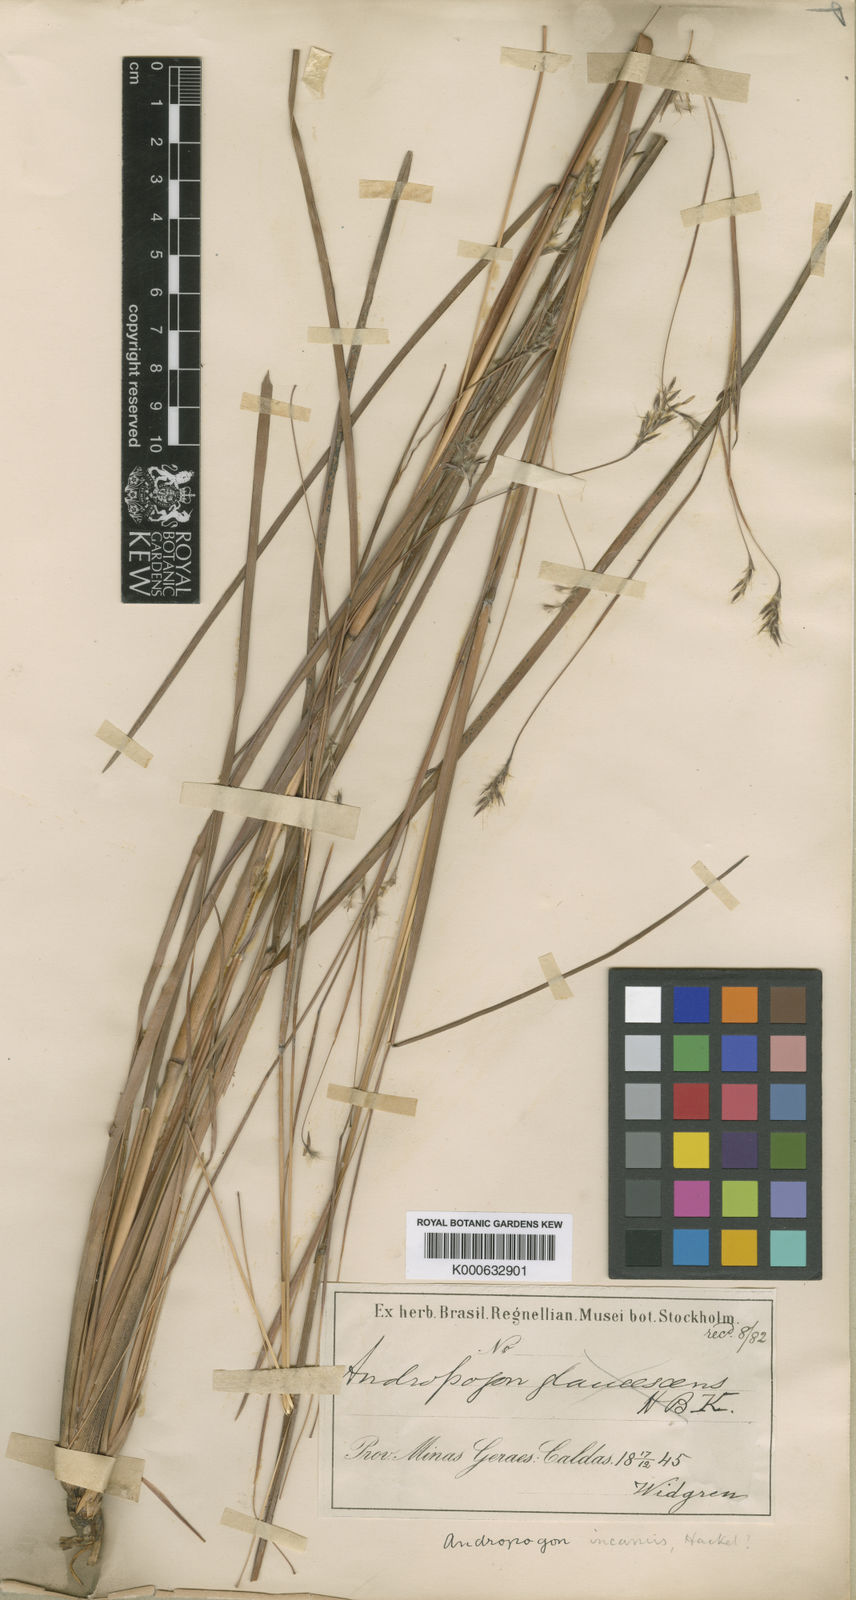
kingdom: Plantae
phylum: Tracheophyta
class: Liliopsida
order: Poales
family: Poaceae
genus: Andropogon
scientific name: Andropogon lateralis
